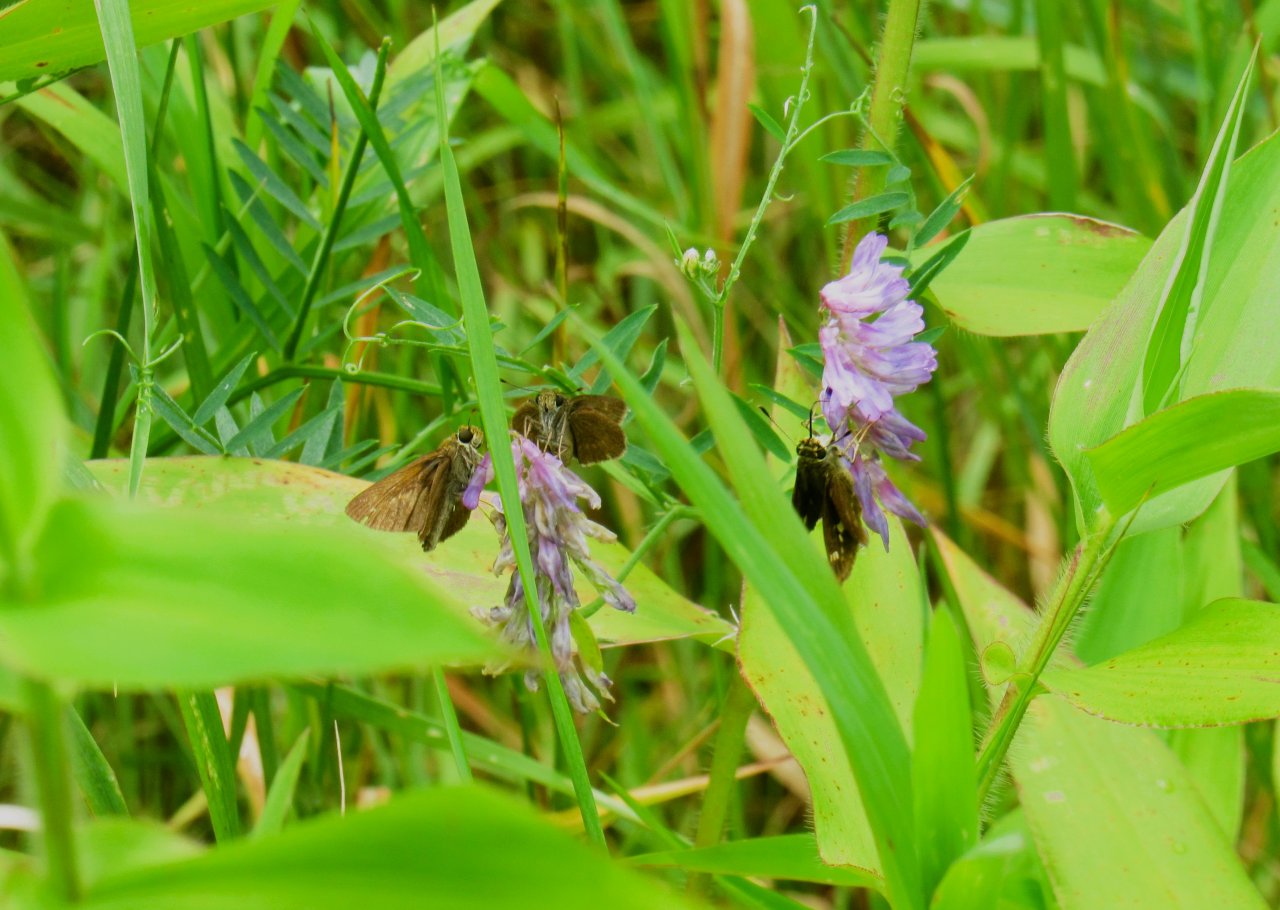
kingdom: Animalia
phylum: Arthropoda
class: Insecta
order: Lepidoptera
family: Hesperiidae
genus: Vernia
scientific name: Vernia verna
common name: Little Glassywing
